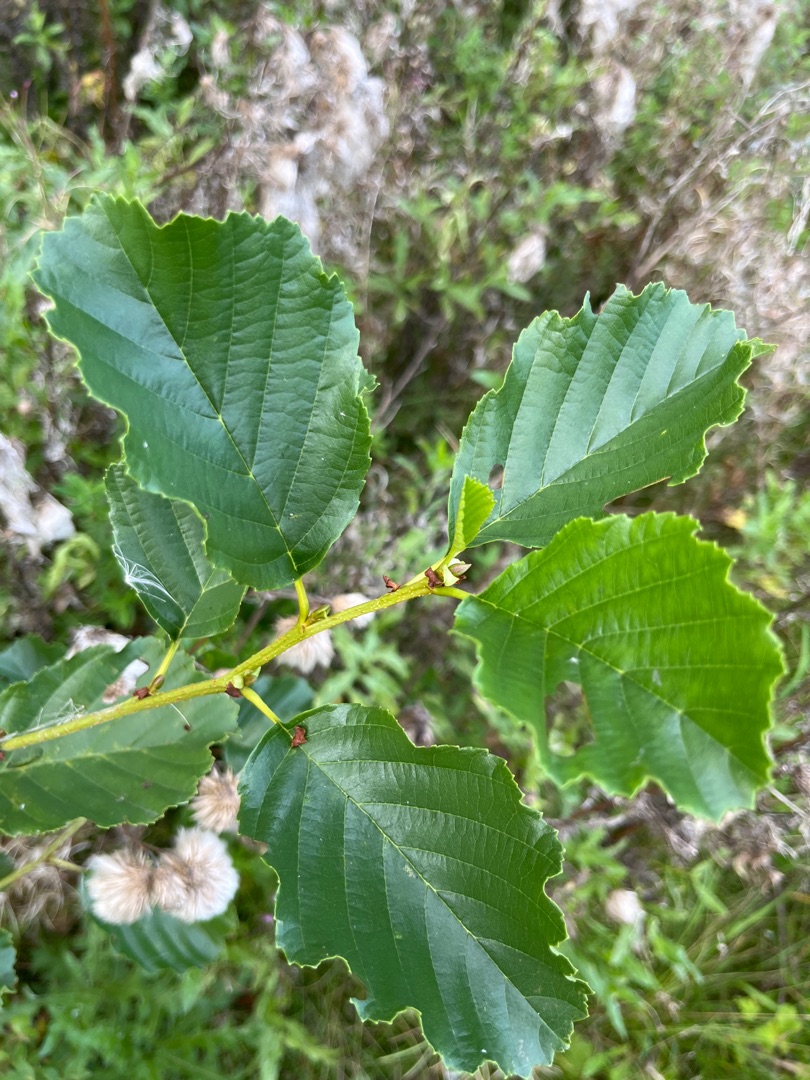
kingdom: Plantae
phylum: Tracheophyta
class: Magnoliopsida
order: Fagales
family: Betulaceae
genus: Alnus
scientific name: Alnus glutinosa
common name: Rød-el
